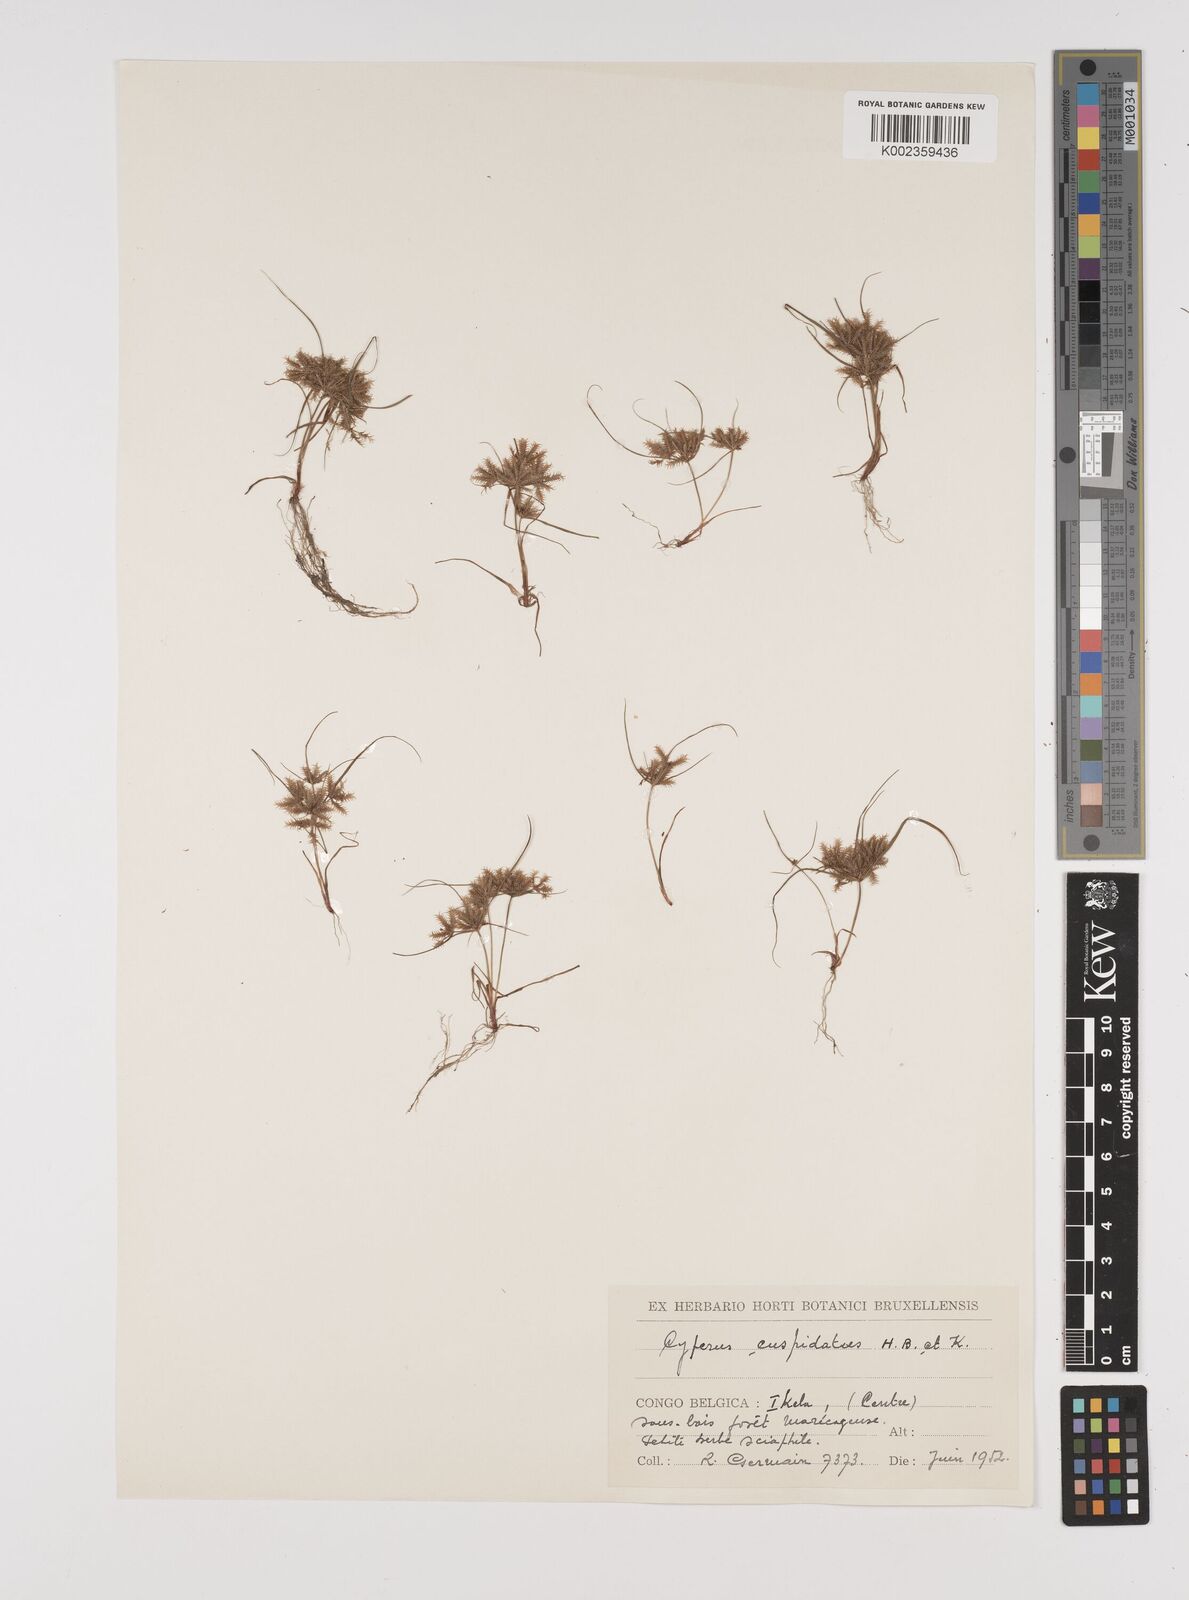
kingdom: Plantae
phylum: Tracheophyta
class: Liliopsida
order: Poales
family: Cyperaceae
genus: Cyperus
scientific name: Cyperus cuspidatus
